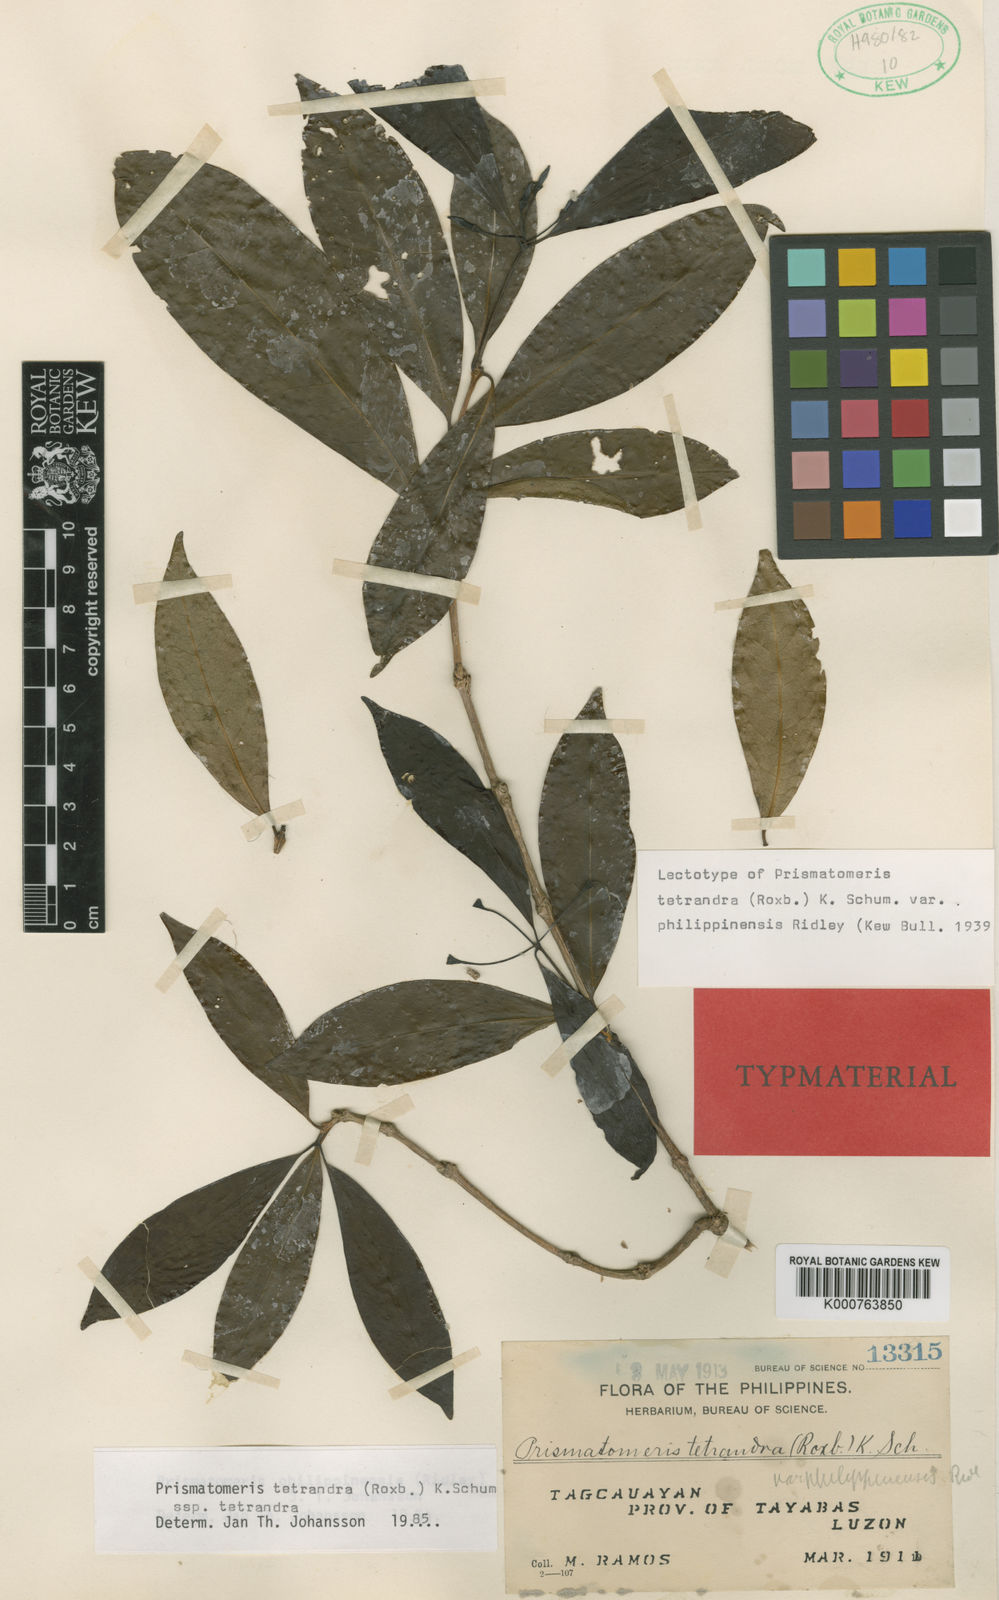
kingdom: Plantae
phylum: Tracheophyta
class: Magnoliopsida
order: Gentianales
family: Rubiaceae
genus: Prismatomeris
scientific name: Prismatomeris tetrandra
